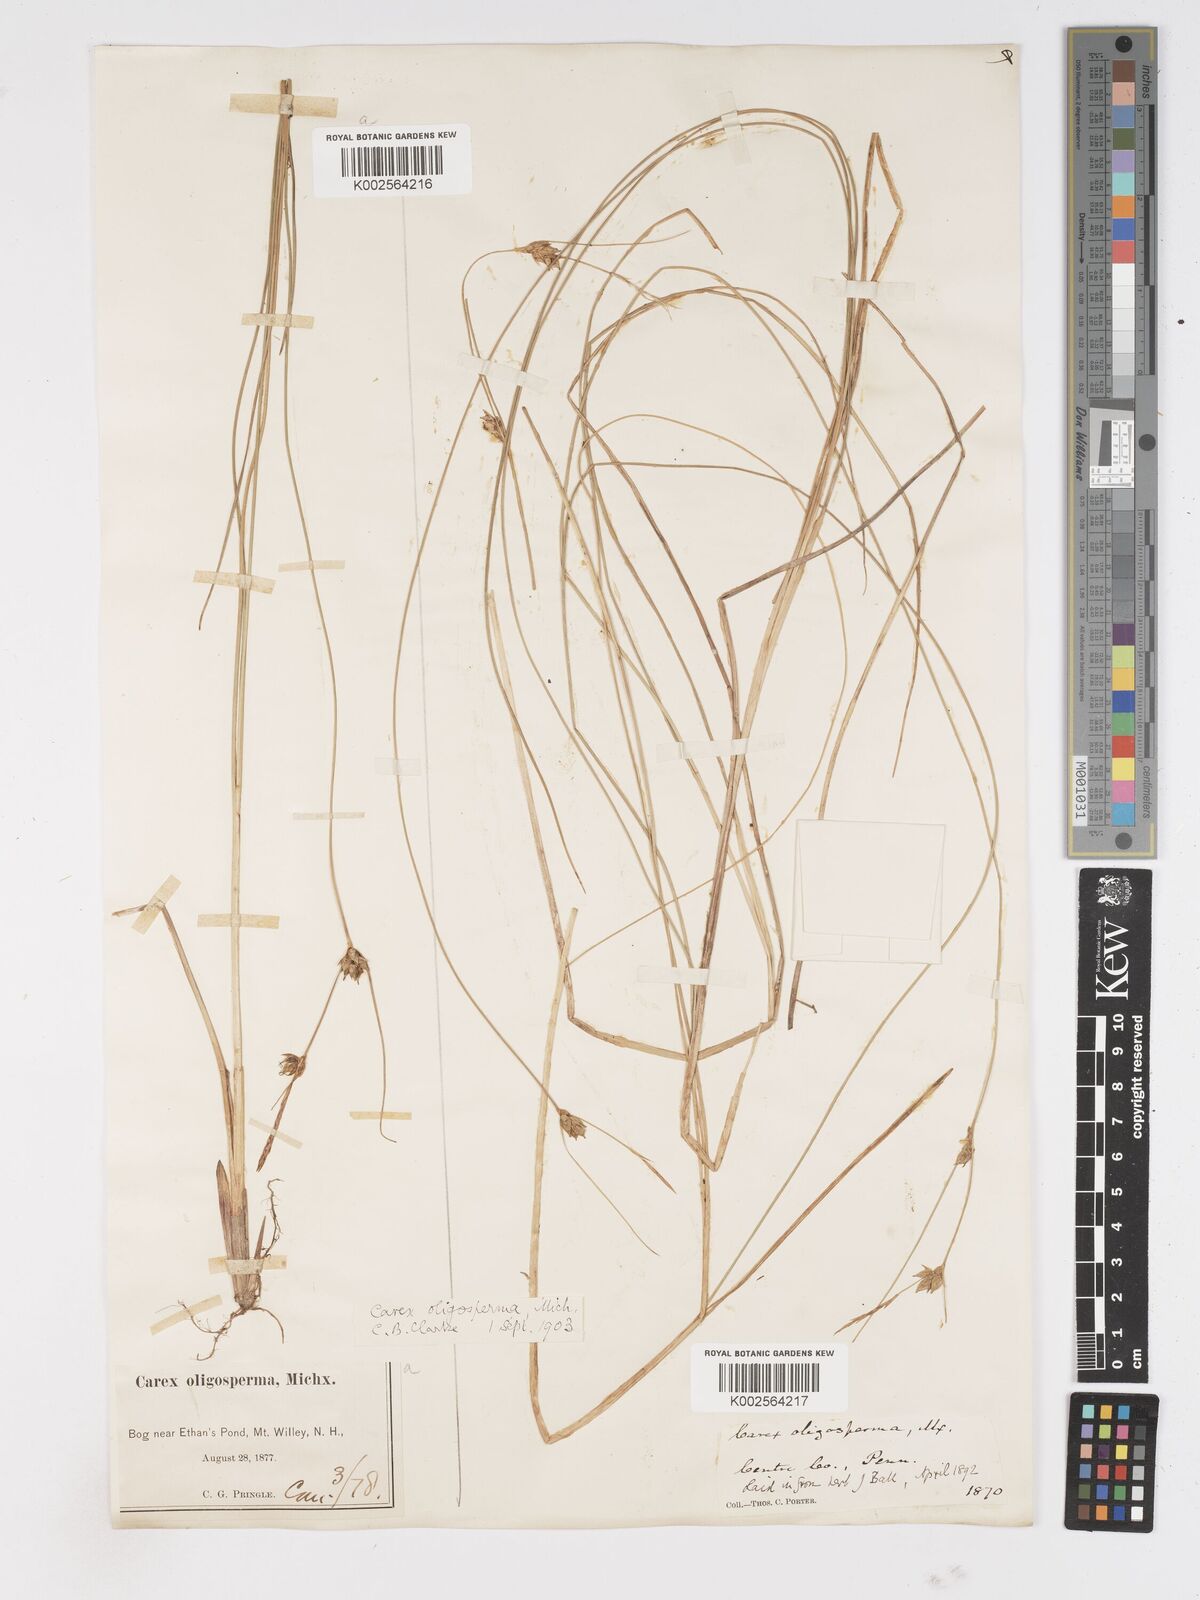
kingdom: Plantae
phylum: Tracheophyta
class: Liliopsida
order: Poales
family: Cyperaceae
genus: Carex
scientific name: Carex oligosperma
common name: Few-seed sedge
